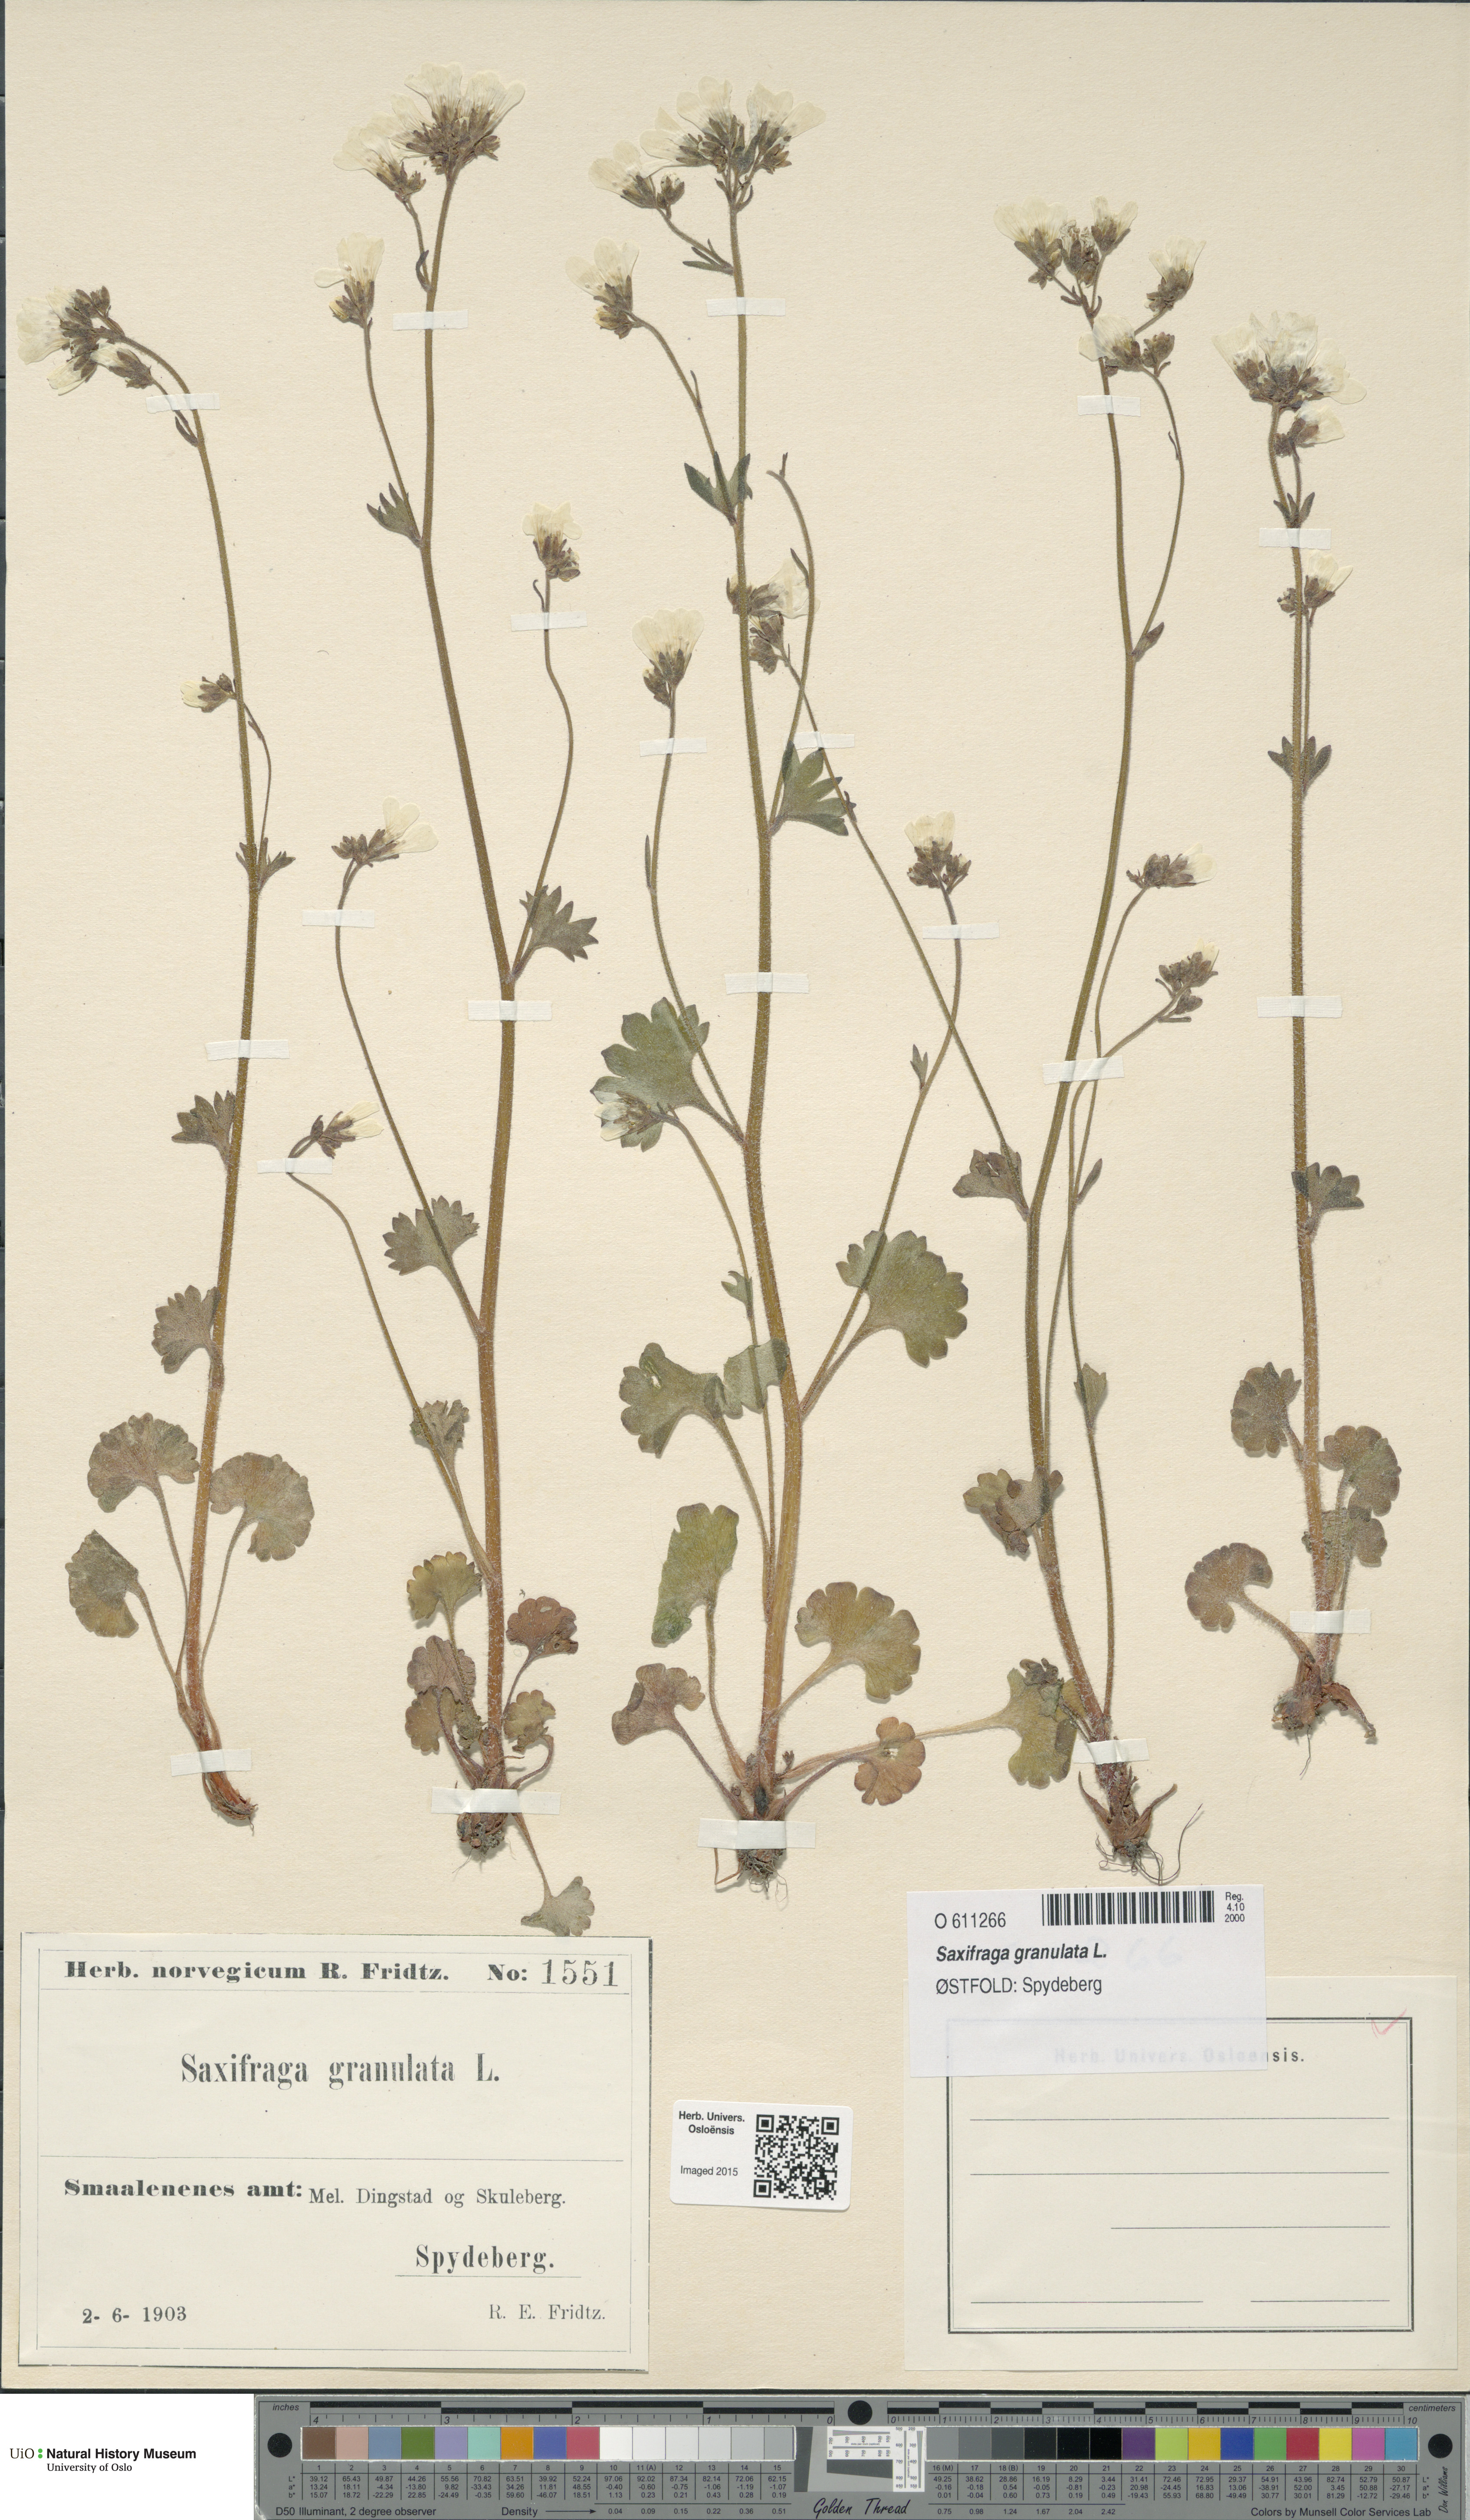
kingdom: Plantae
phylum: Tracheophyta
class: Magnoliopsida
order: Saxifragales
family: Saxifragaceae
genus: Saxifraga
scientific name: Saxifraga granulata
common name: Meadow saxifrage
